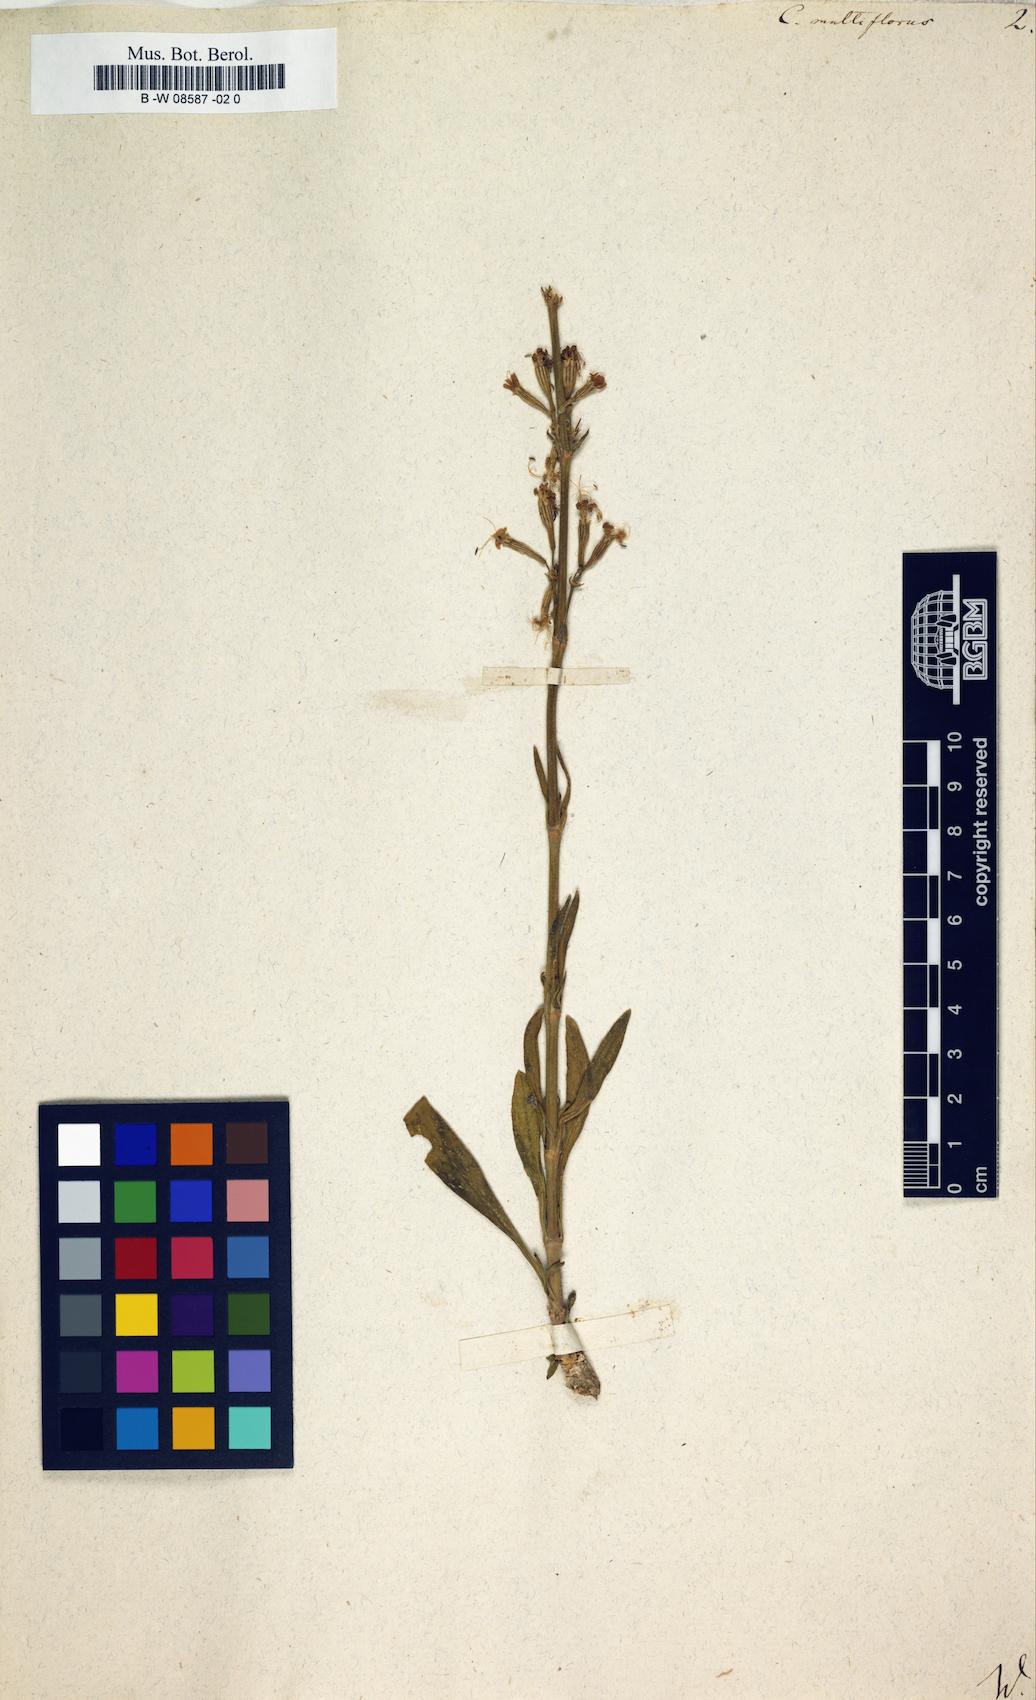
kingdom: Plantae
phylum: Tracheophyta
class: Magnoliopsida
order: Caryophyllales
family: Caryophyllaceae
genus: Silene
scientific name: Silene multiflora
